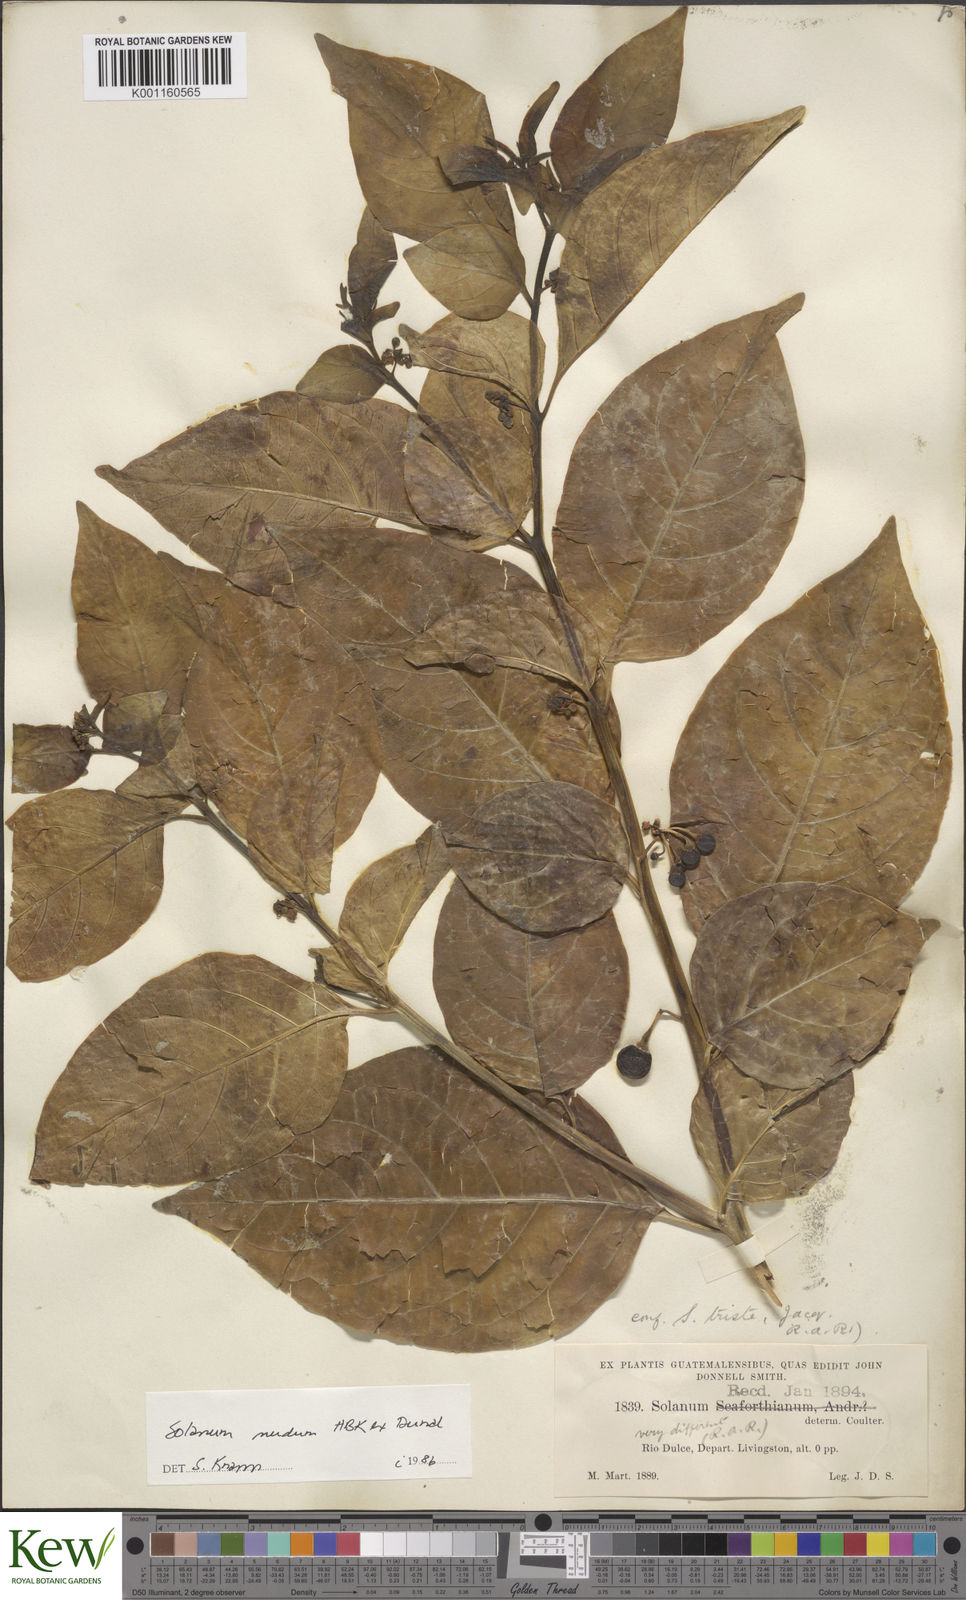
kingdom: Plantae
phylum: Tracheophyta
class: Magnoliopsida
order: Solanales
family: Solanaceae
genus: Solanum
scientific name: Solanum nudum
